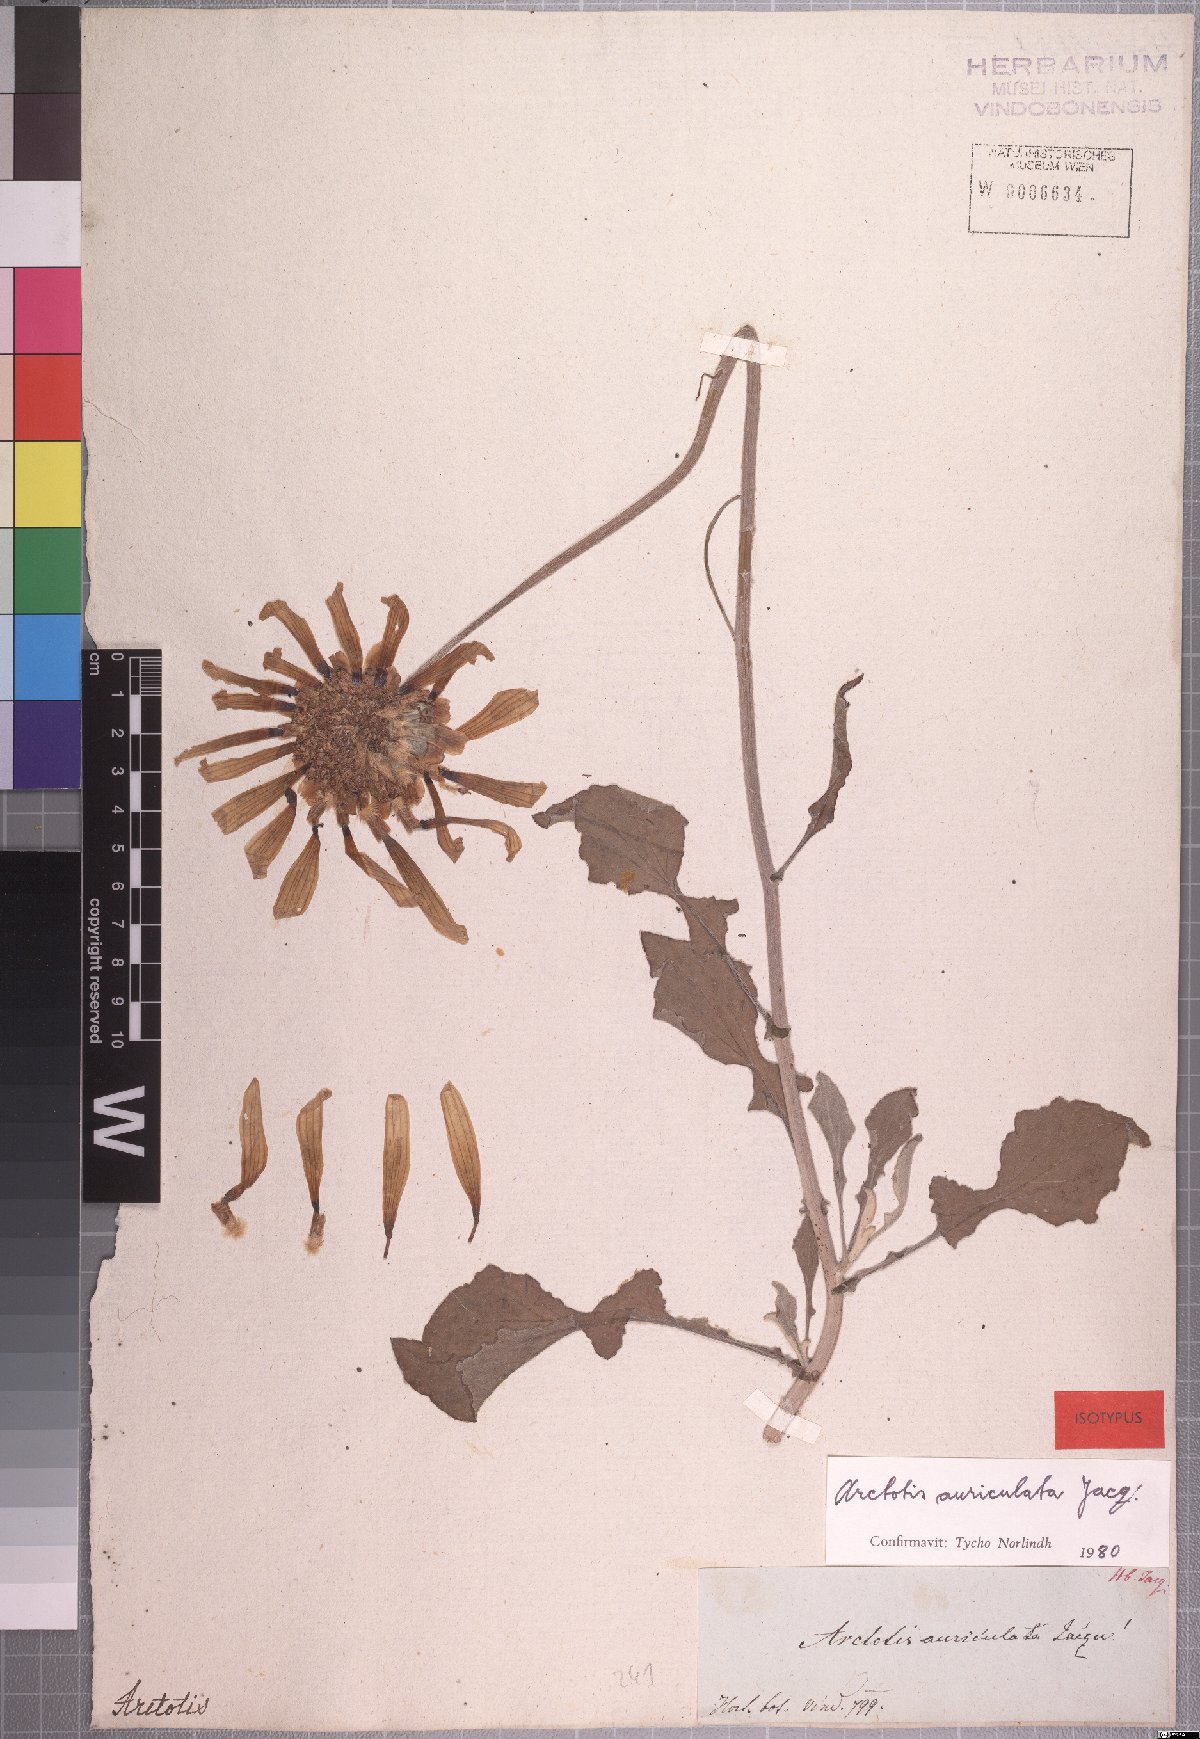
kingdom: Plantae
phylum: Tracheophyta
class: Magnoliopsida
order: Asterales
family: Asteraceae
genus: Arctotis
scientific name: Arctotis auriculata
